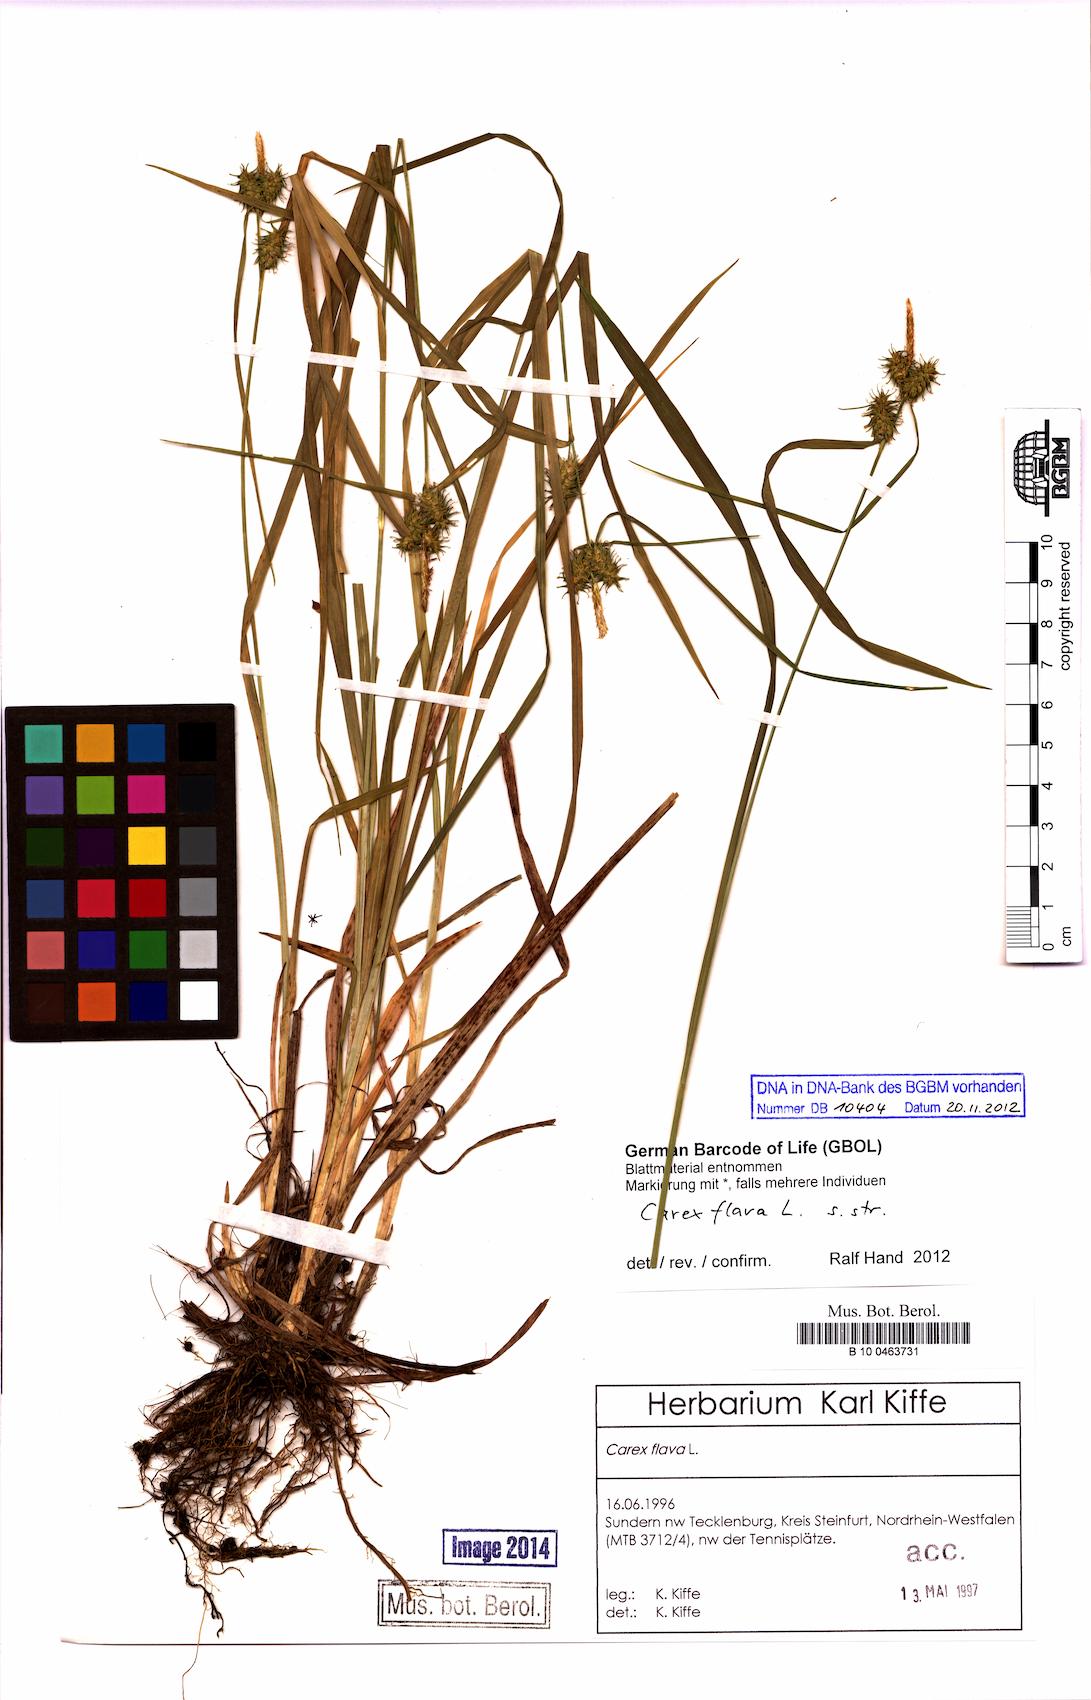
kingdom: Plantae
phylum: Tracheophyta
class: Liliopsida
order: Poales
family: Cyperaceae
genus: Carex
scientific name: Carex flava
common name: Large yellow-sedge
